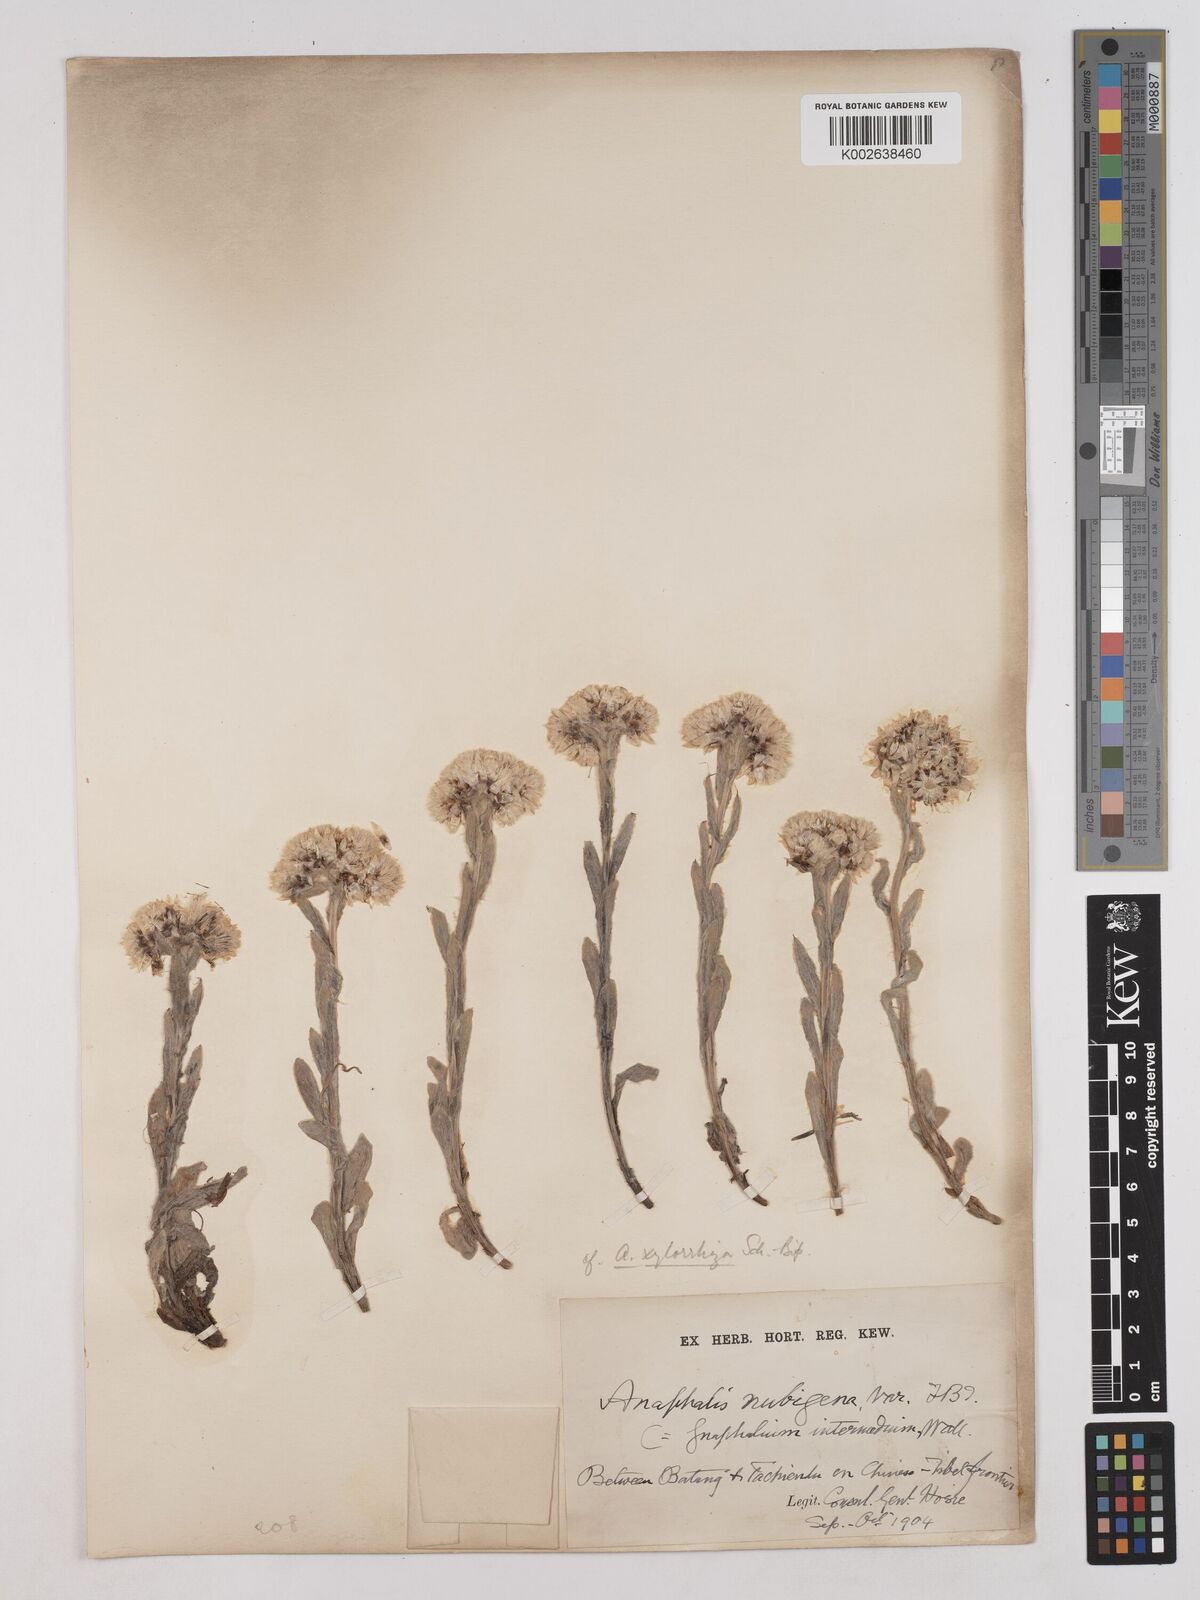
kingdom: Plantae
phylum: Tracheophyta
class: Magnoliopsida
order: Asterales
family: Asteraceae
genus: Anaphalis
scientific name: Anaphalis xylorhiza
